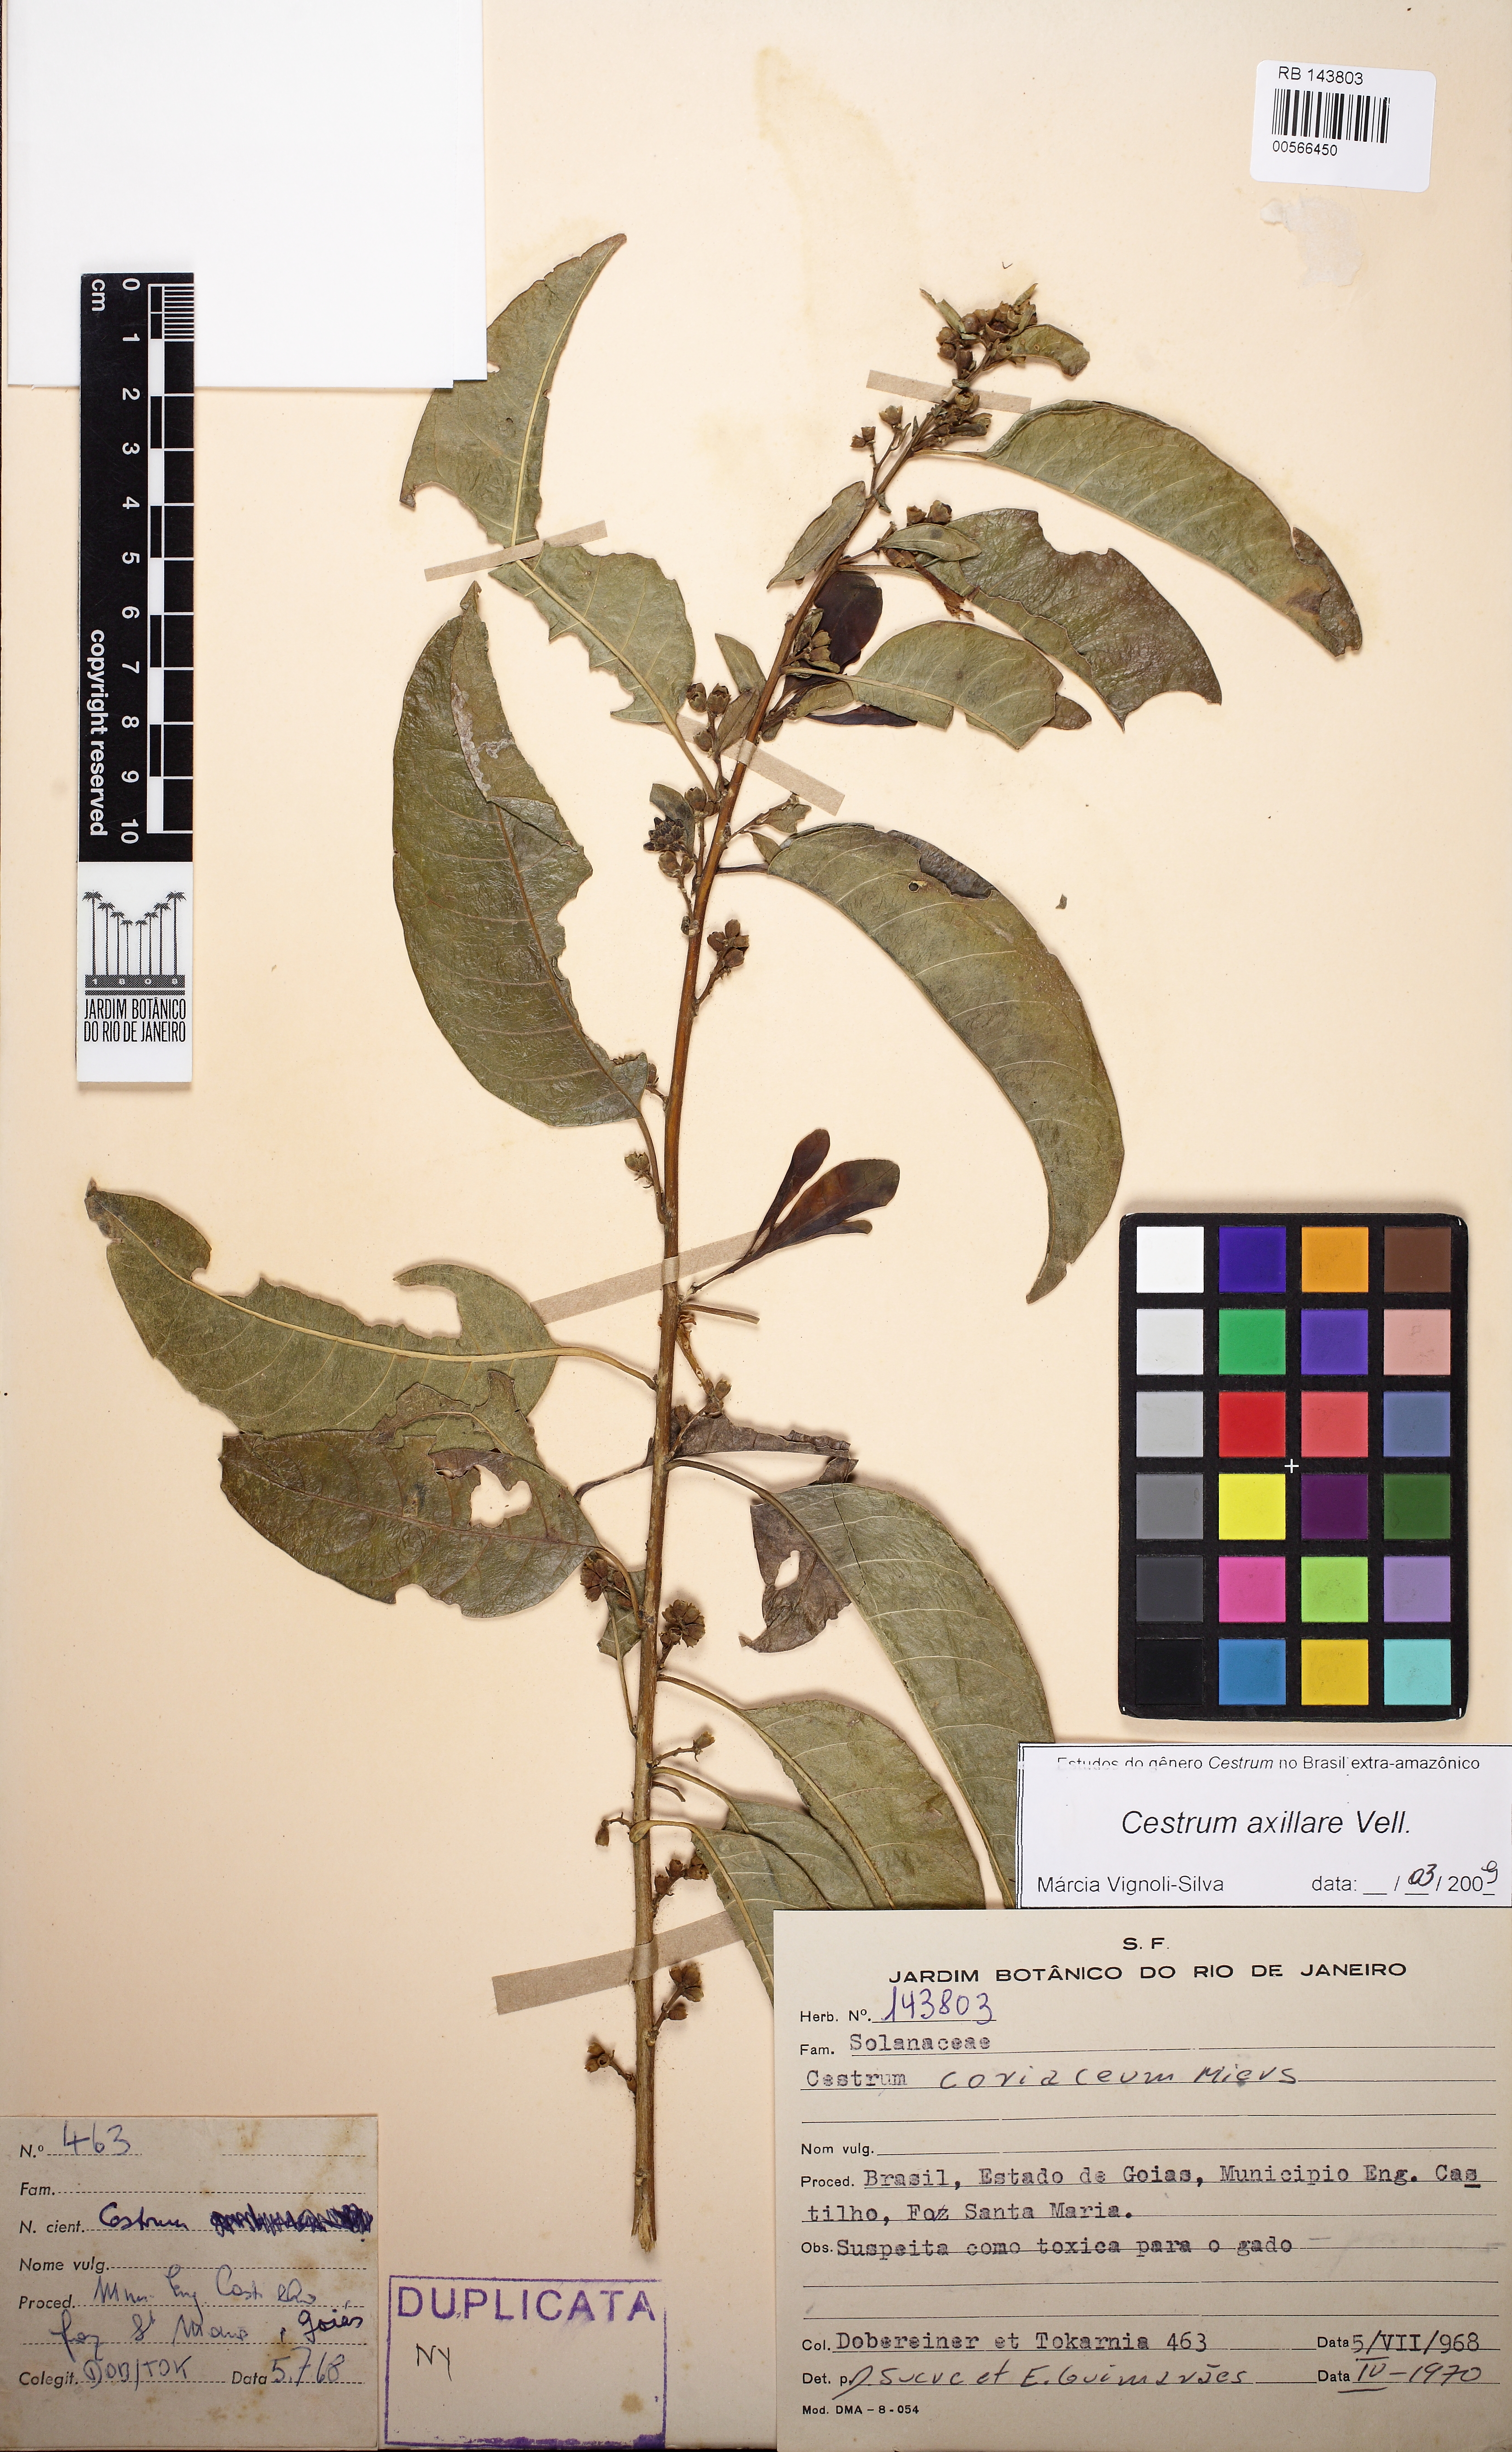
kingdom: Plantae
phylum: Tracheophyta
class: Magnoliopsida
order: Solanales
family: Solanaceae
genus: Cestrum
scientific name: Cestrum laevigatum
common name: Inkberry
